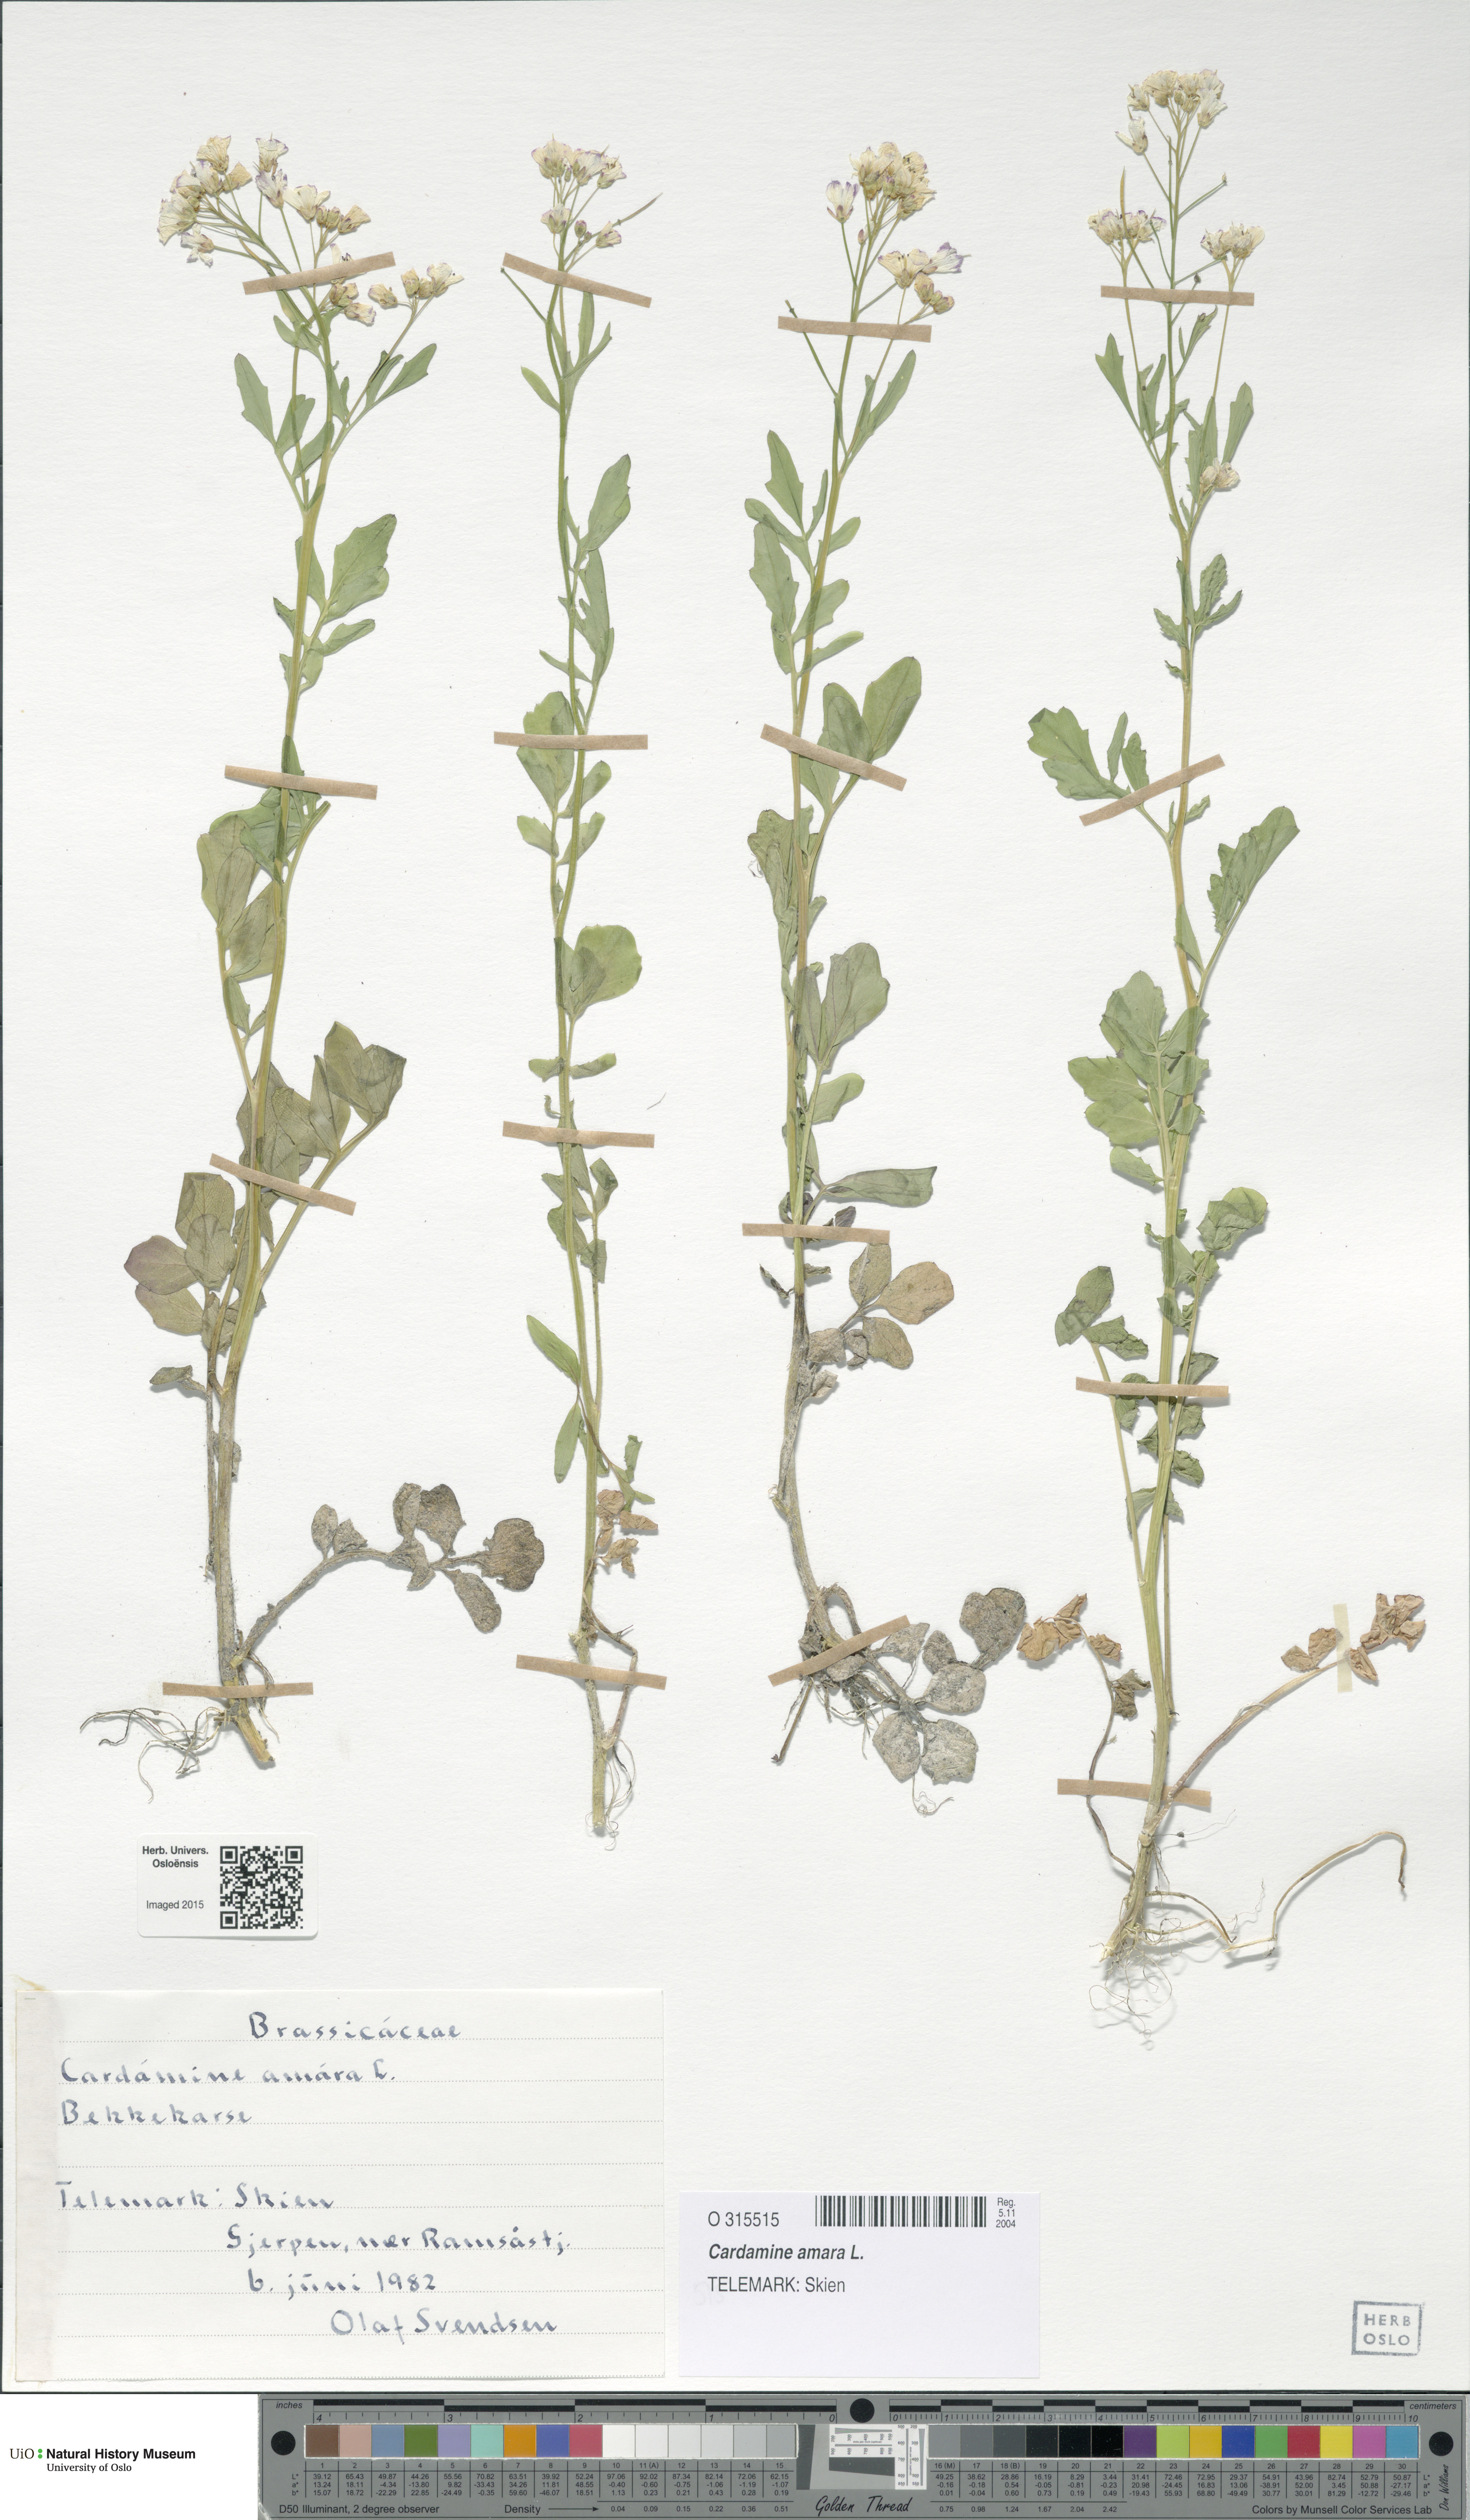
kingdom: Plantae
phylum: Tracheophyta
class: Magnoliopsida
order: Brassicales
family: Brassicaceae
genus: Cardamine
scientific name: Cardamine amara
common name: Large bitter-cress
